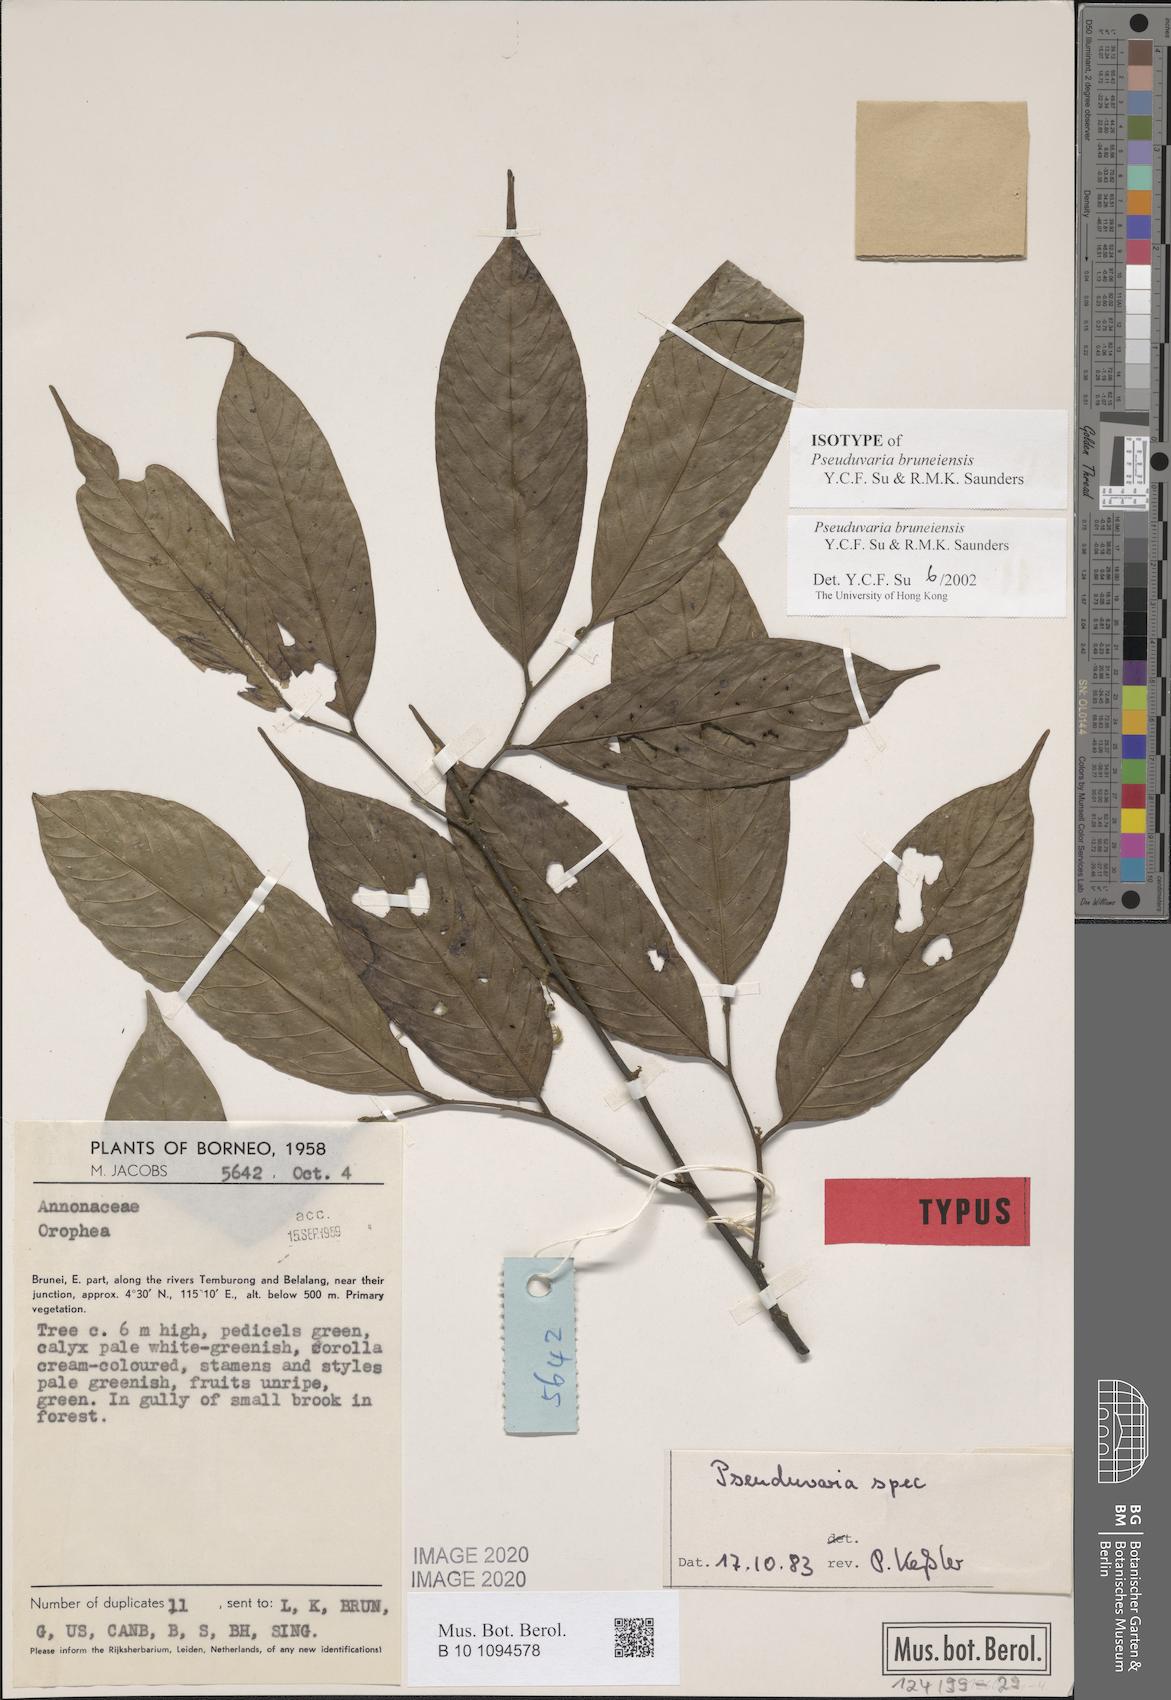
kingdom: Plantae
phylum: Tracheophyta
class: Magnoliopsida
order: Magnoliales
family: Annonaceae
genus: Pseuduvaria
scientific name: Pseuduvaria bruneiensis
